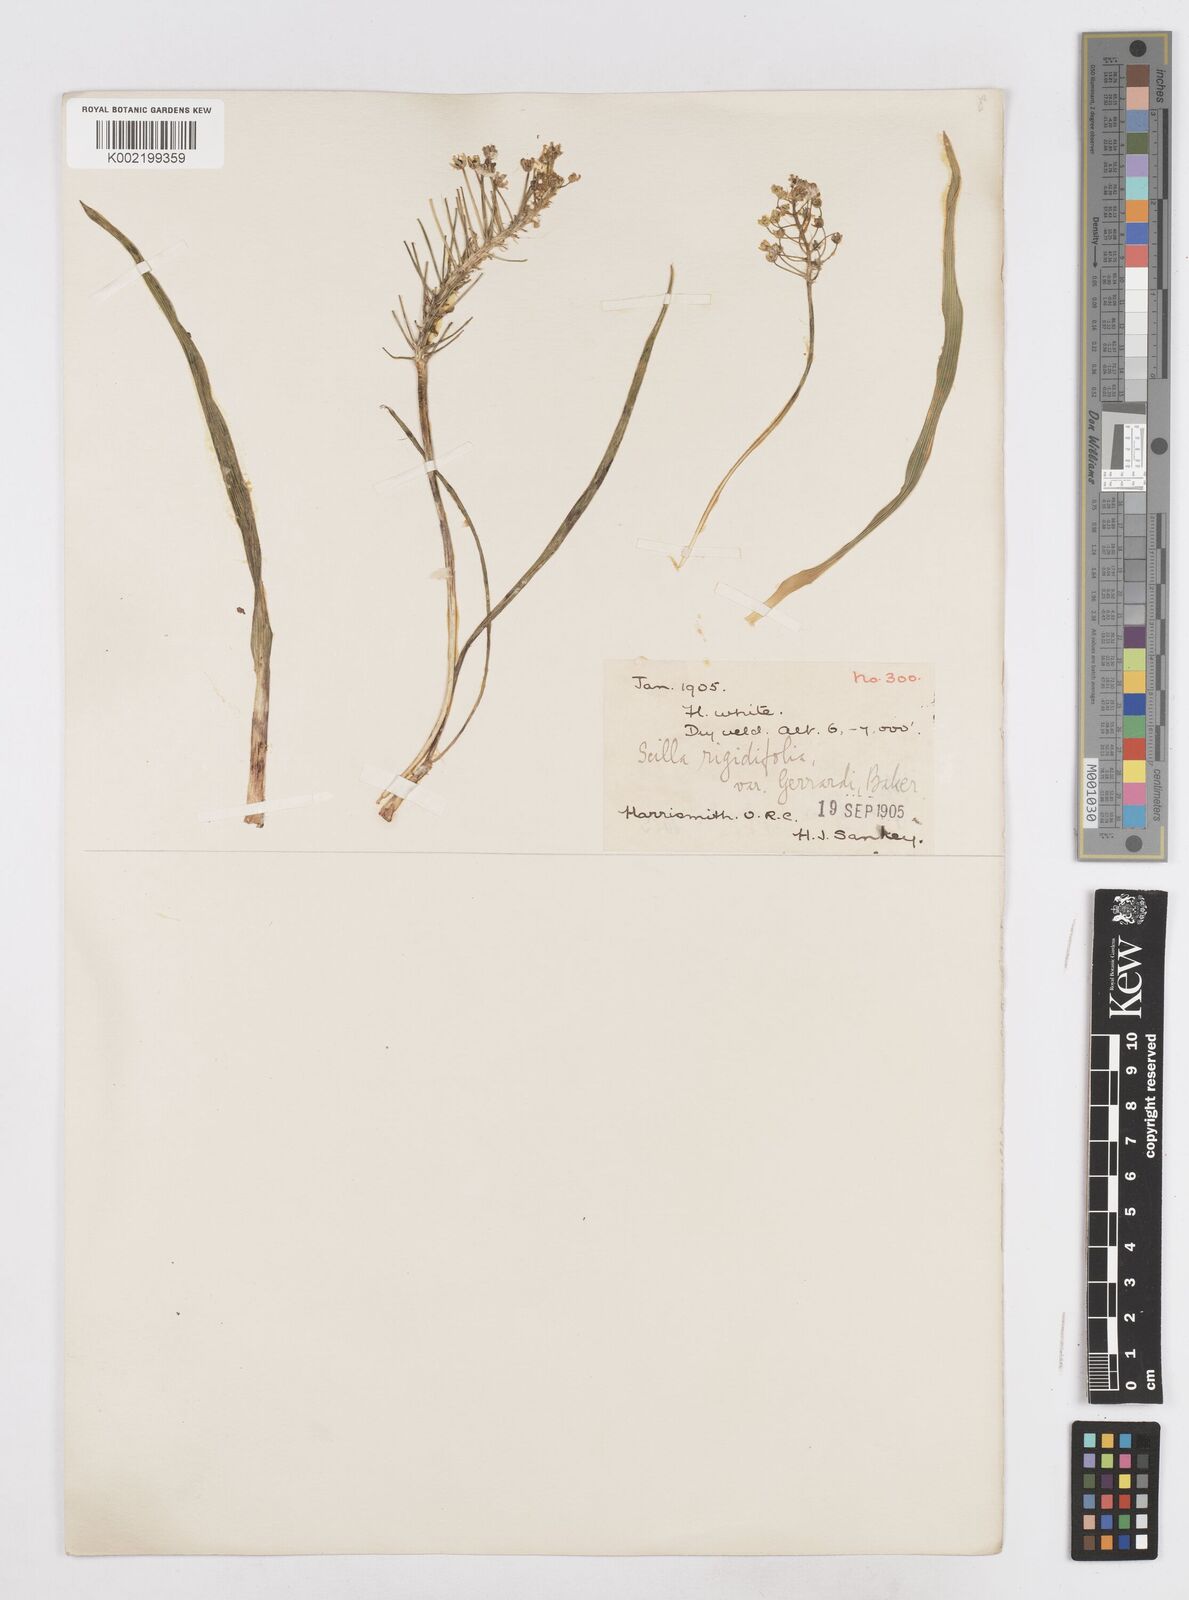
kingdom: Plantae
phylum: Tracheophyta
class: Liliopsida
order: Asparagales
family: Asparagaceae
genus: Schizocarphus
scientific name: Schizocarphus nervosus
